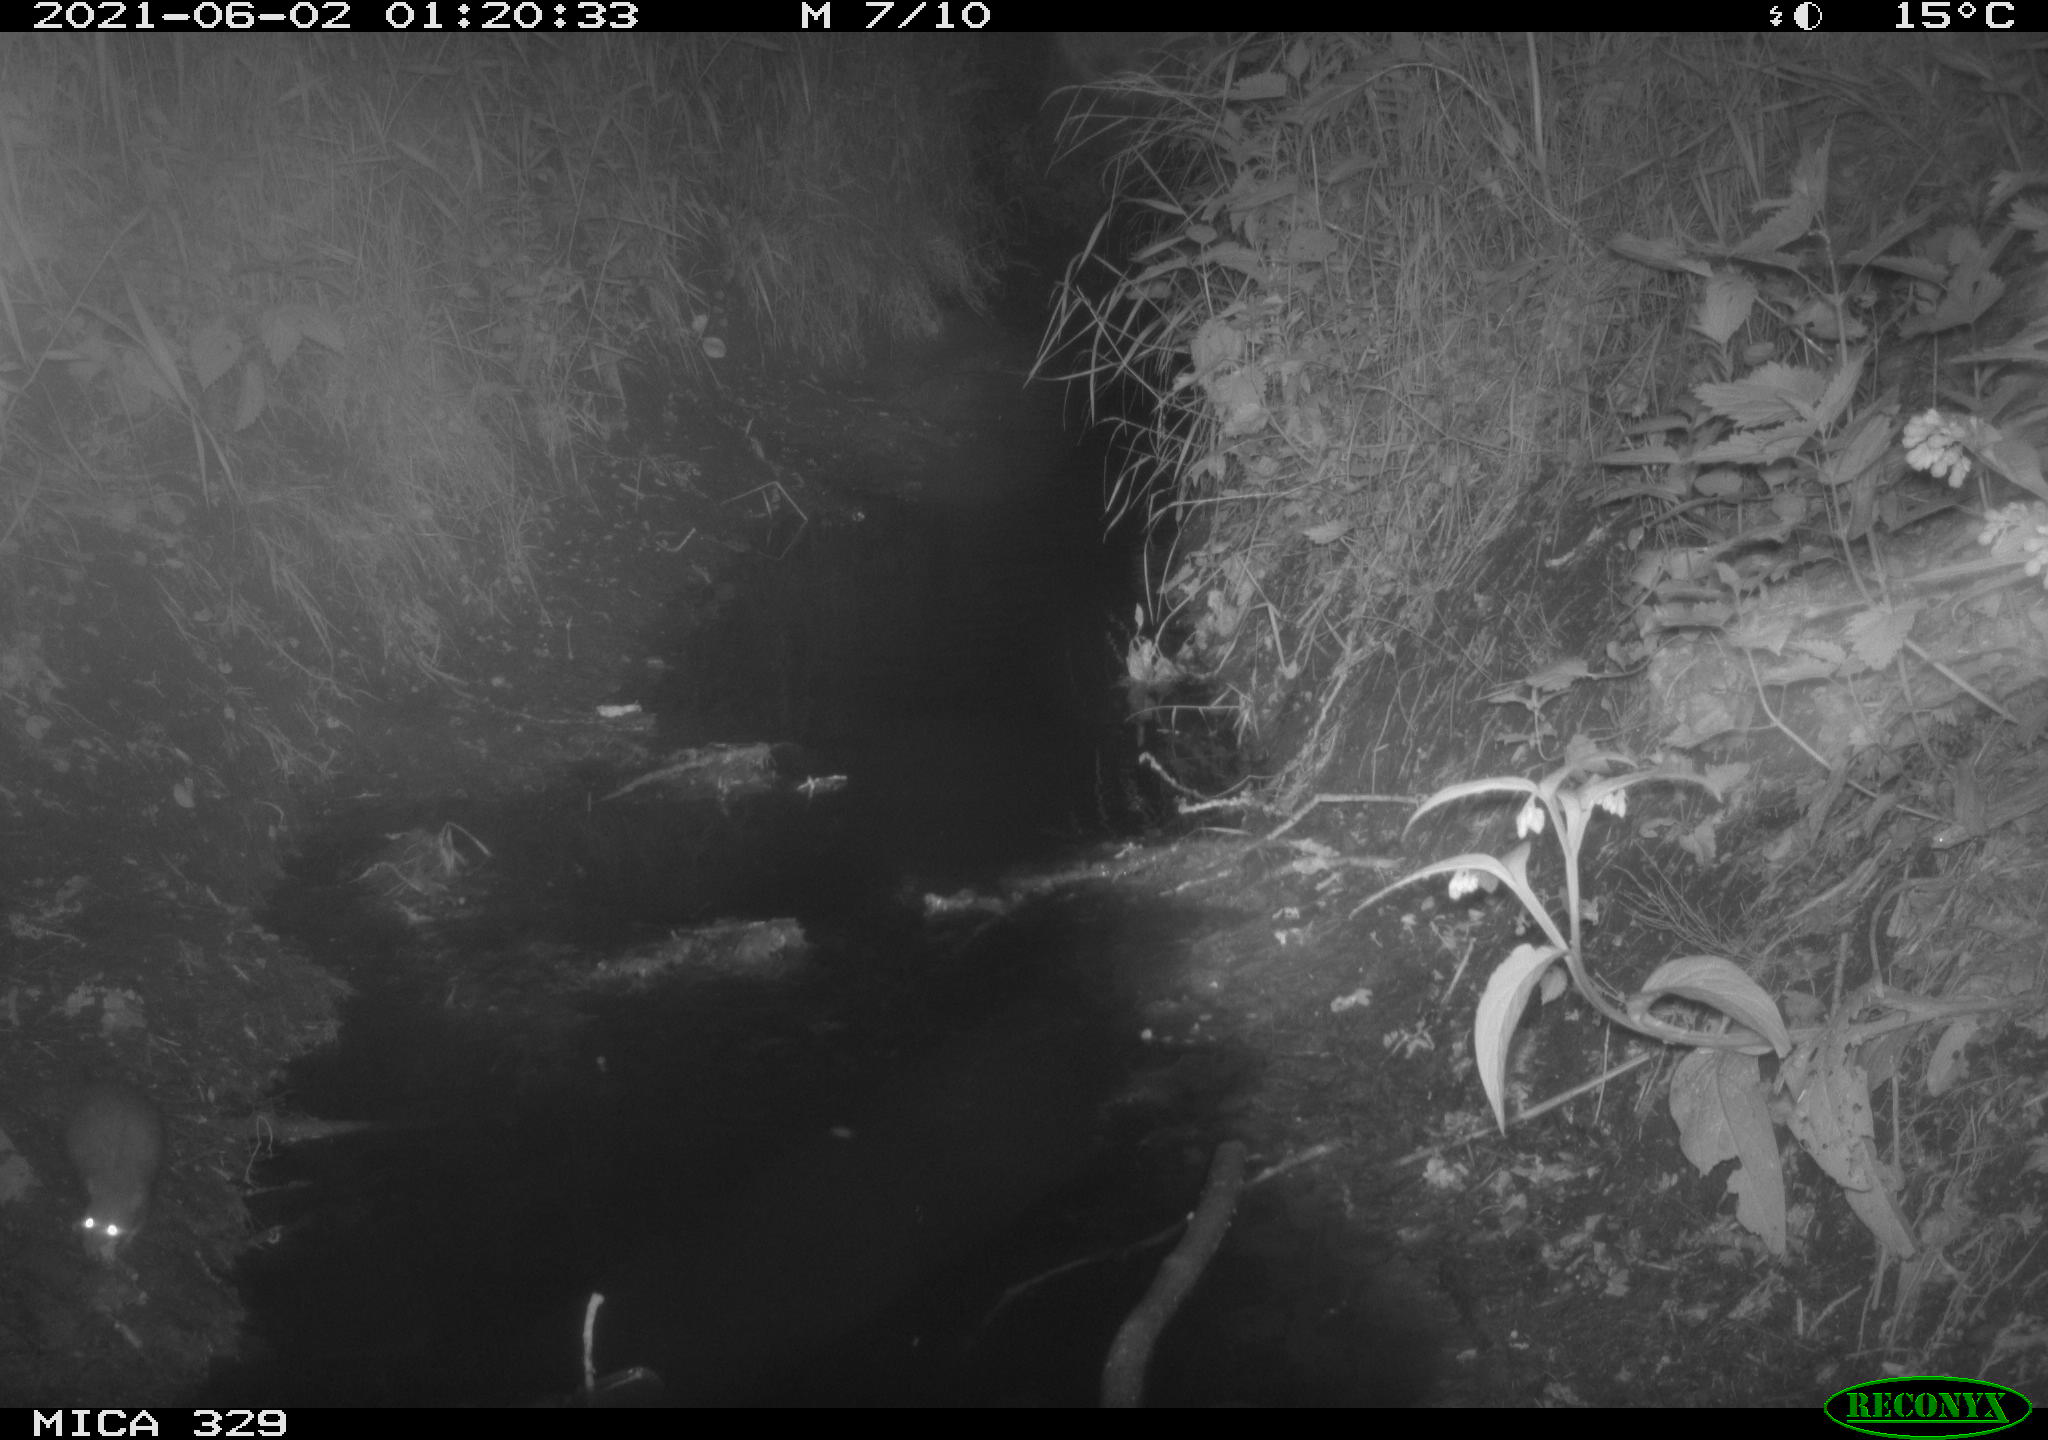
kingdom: Animalia
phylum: Chordata
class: Mammalia
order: Rodentia
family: Muridae
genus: Rattus
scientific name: Rattus norvegicus
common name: Brown rat
